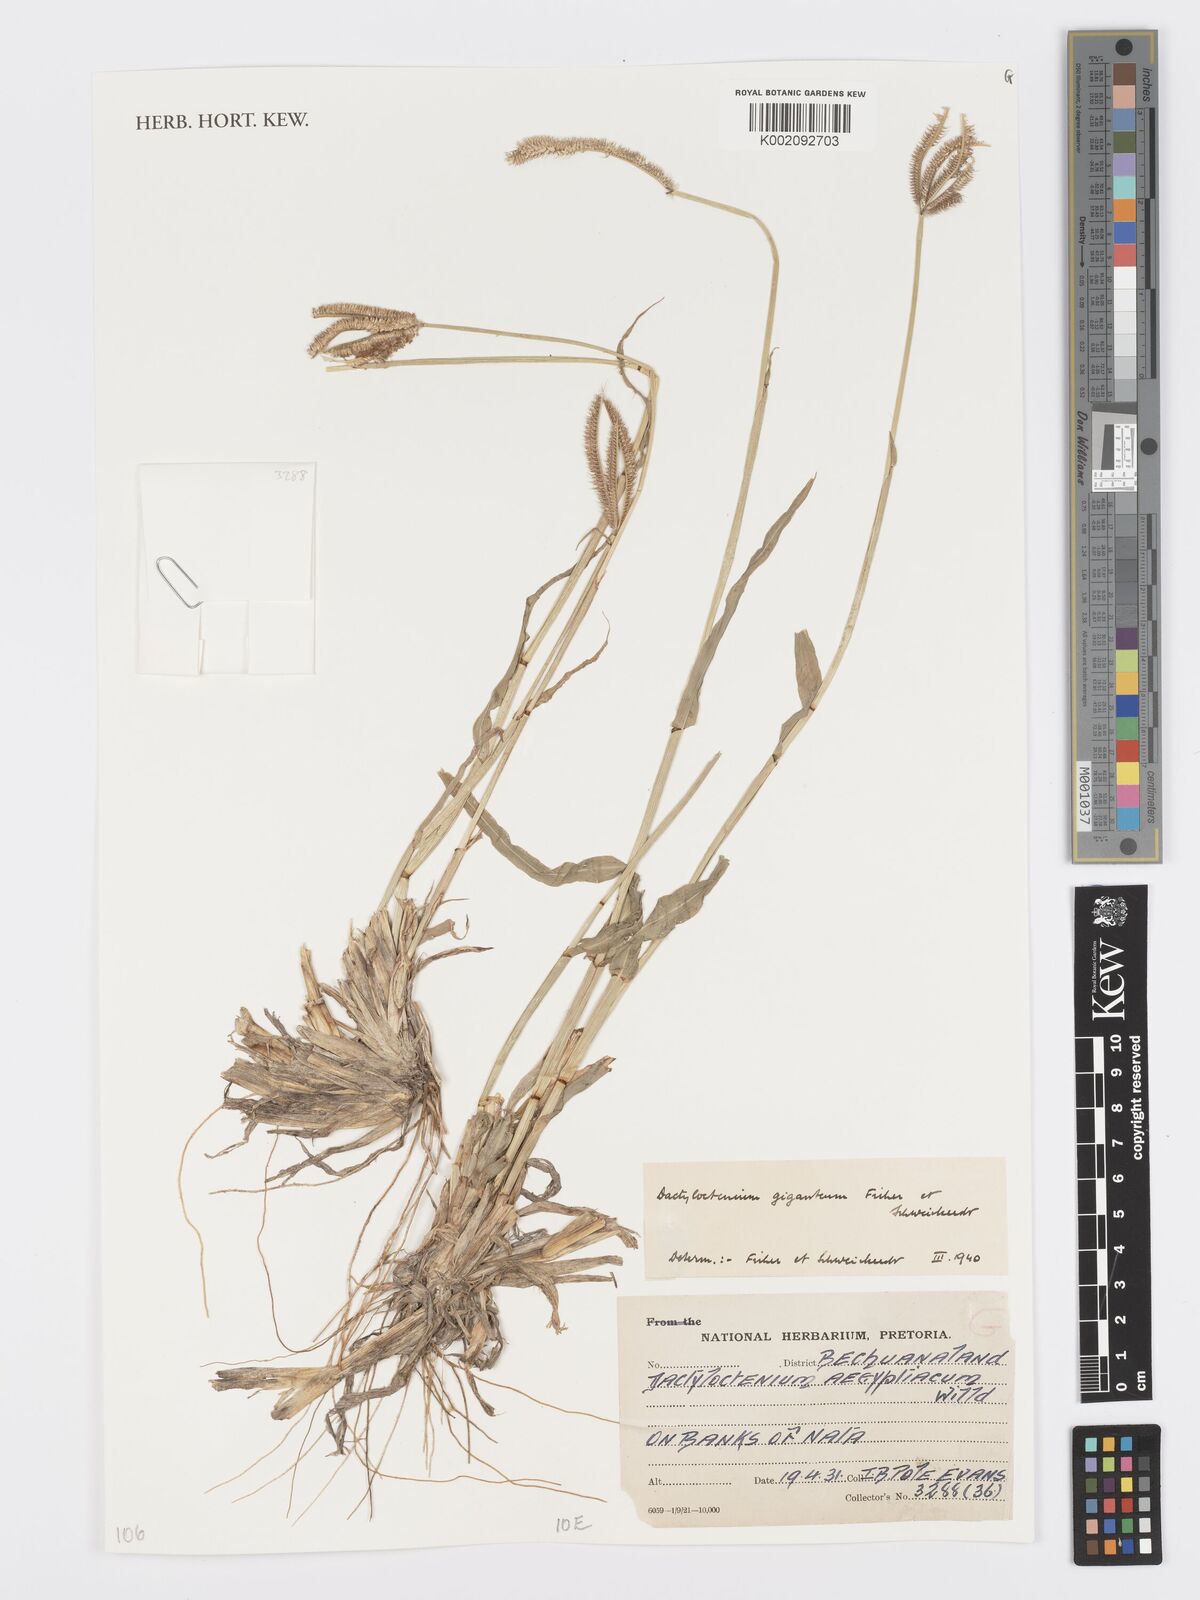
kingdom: Plantae
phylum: Tracheophyta
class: Liliopsida
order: Poales
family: Poaceae
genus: Dactyloctenium
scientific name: Dactyloctenium giganteum
